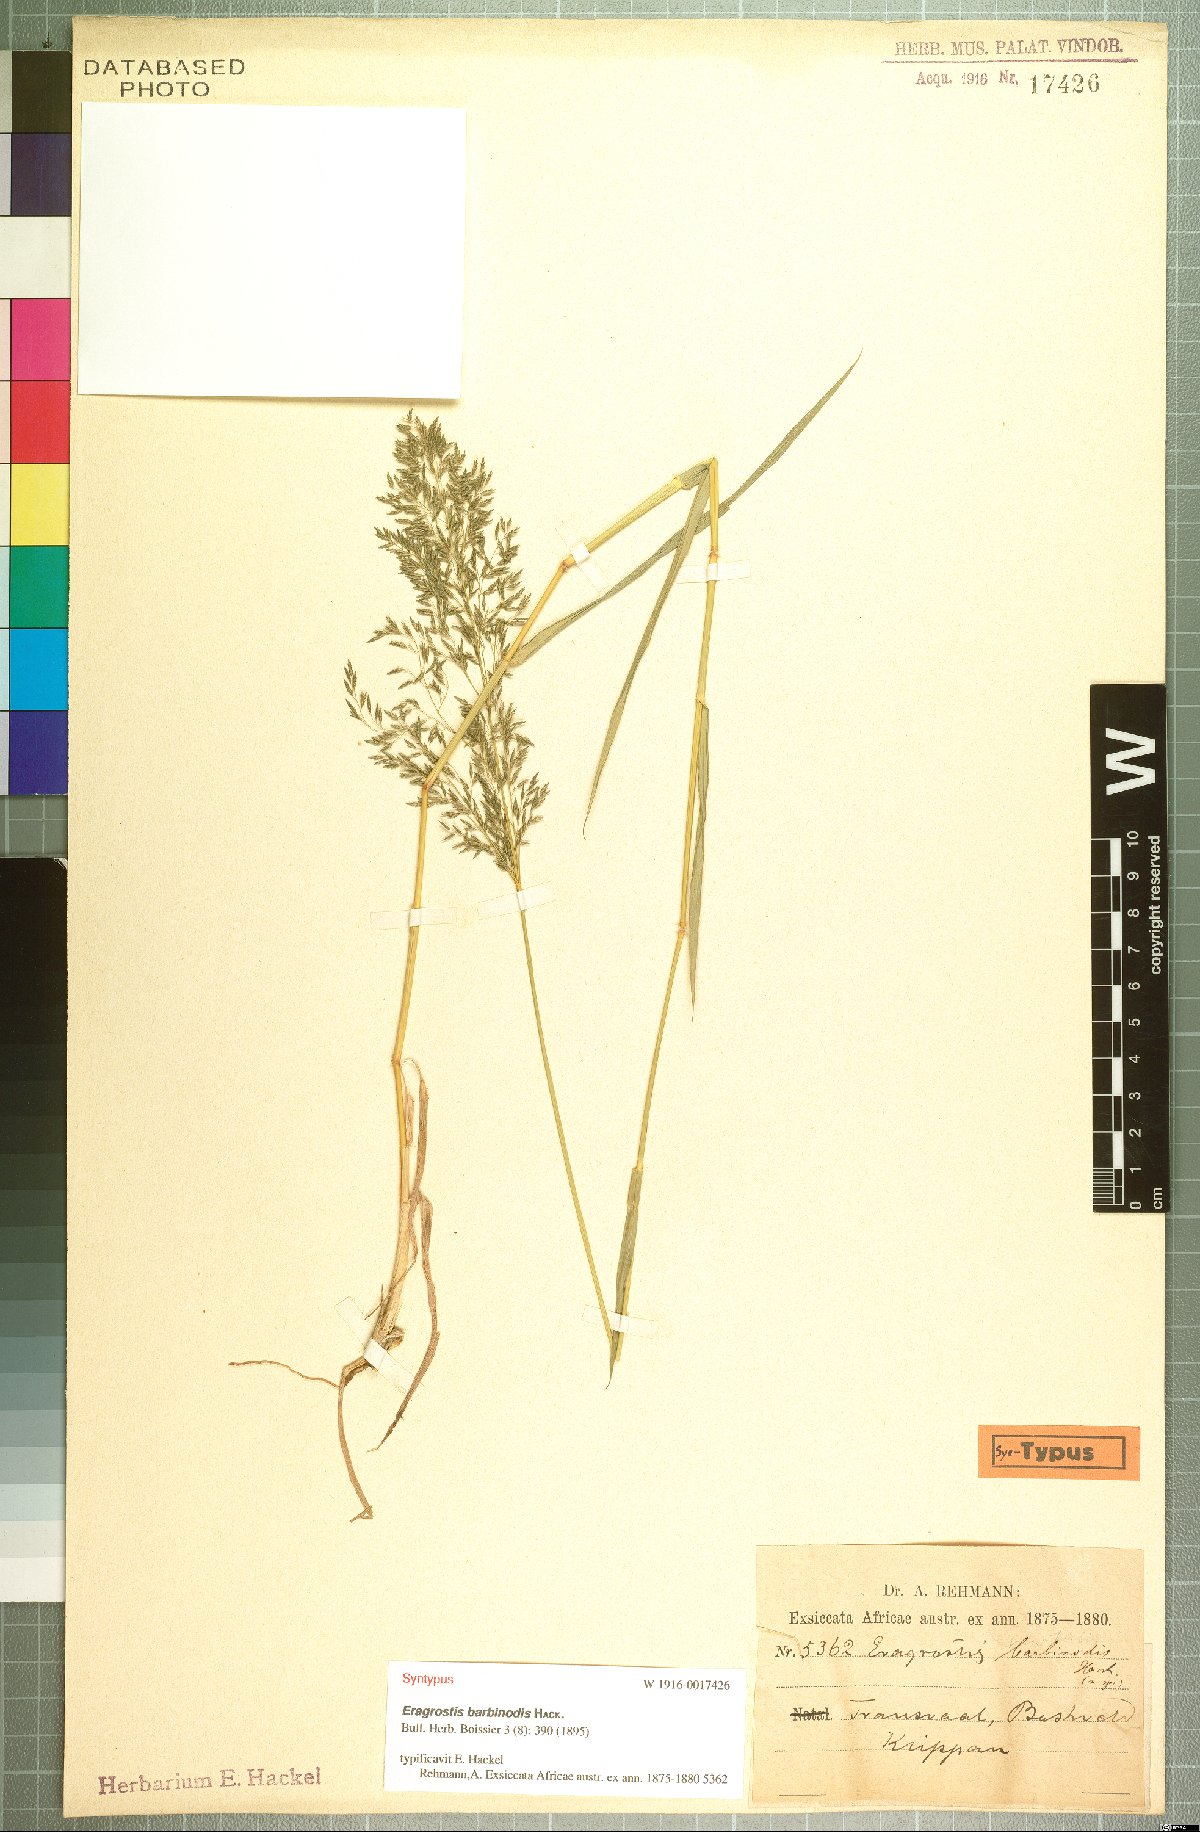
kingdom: Plantae
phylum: Tracheophyta
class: Liliopsida
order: Poales
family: Poaceae
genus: Eragrostis
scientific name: Eragrostis barbinodis
